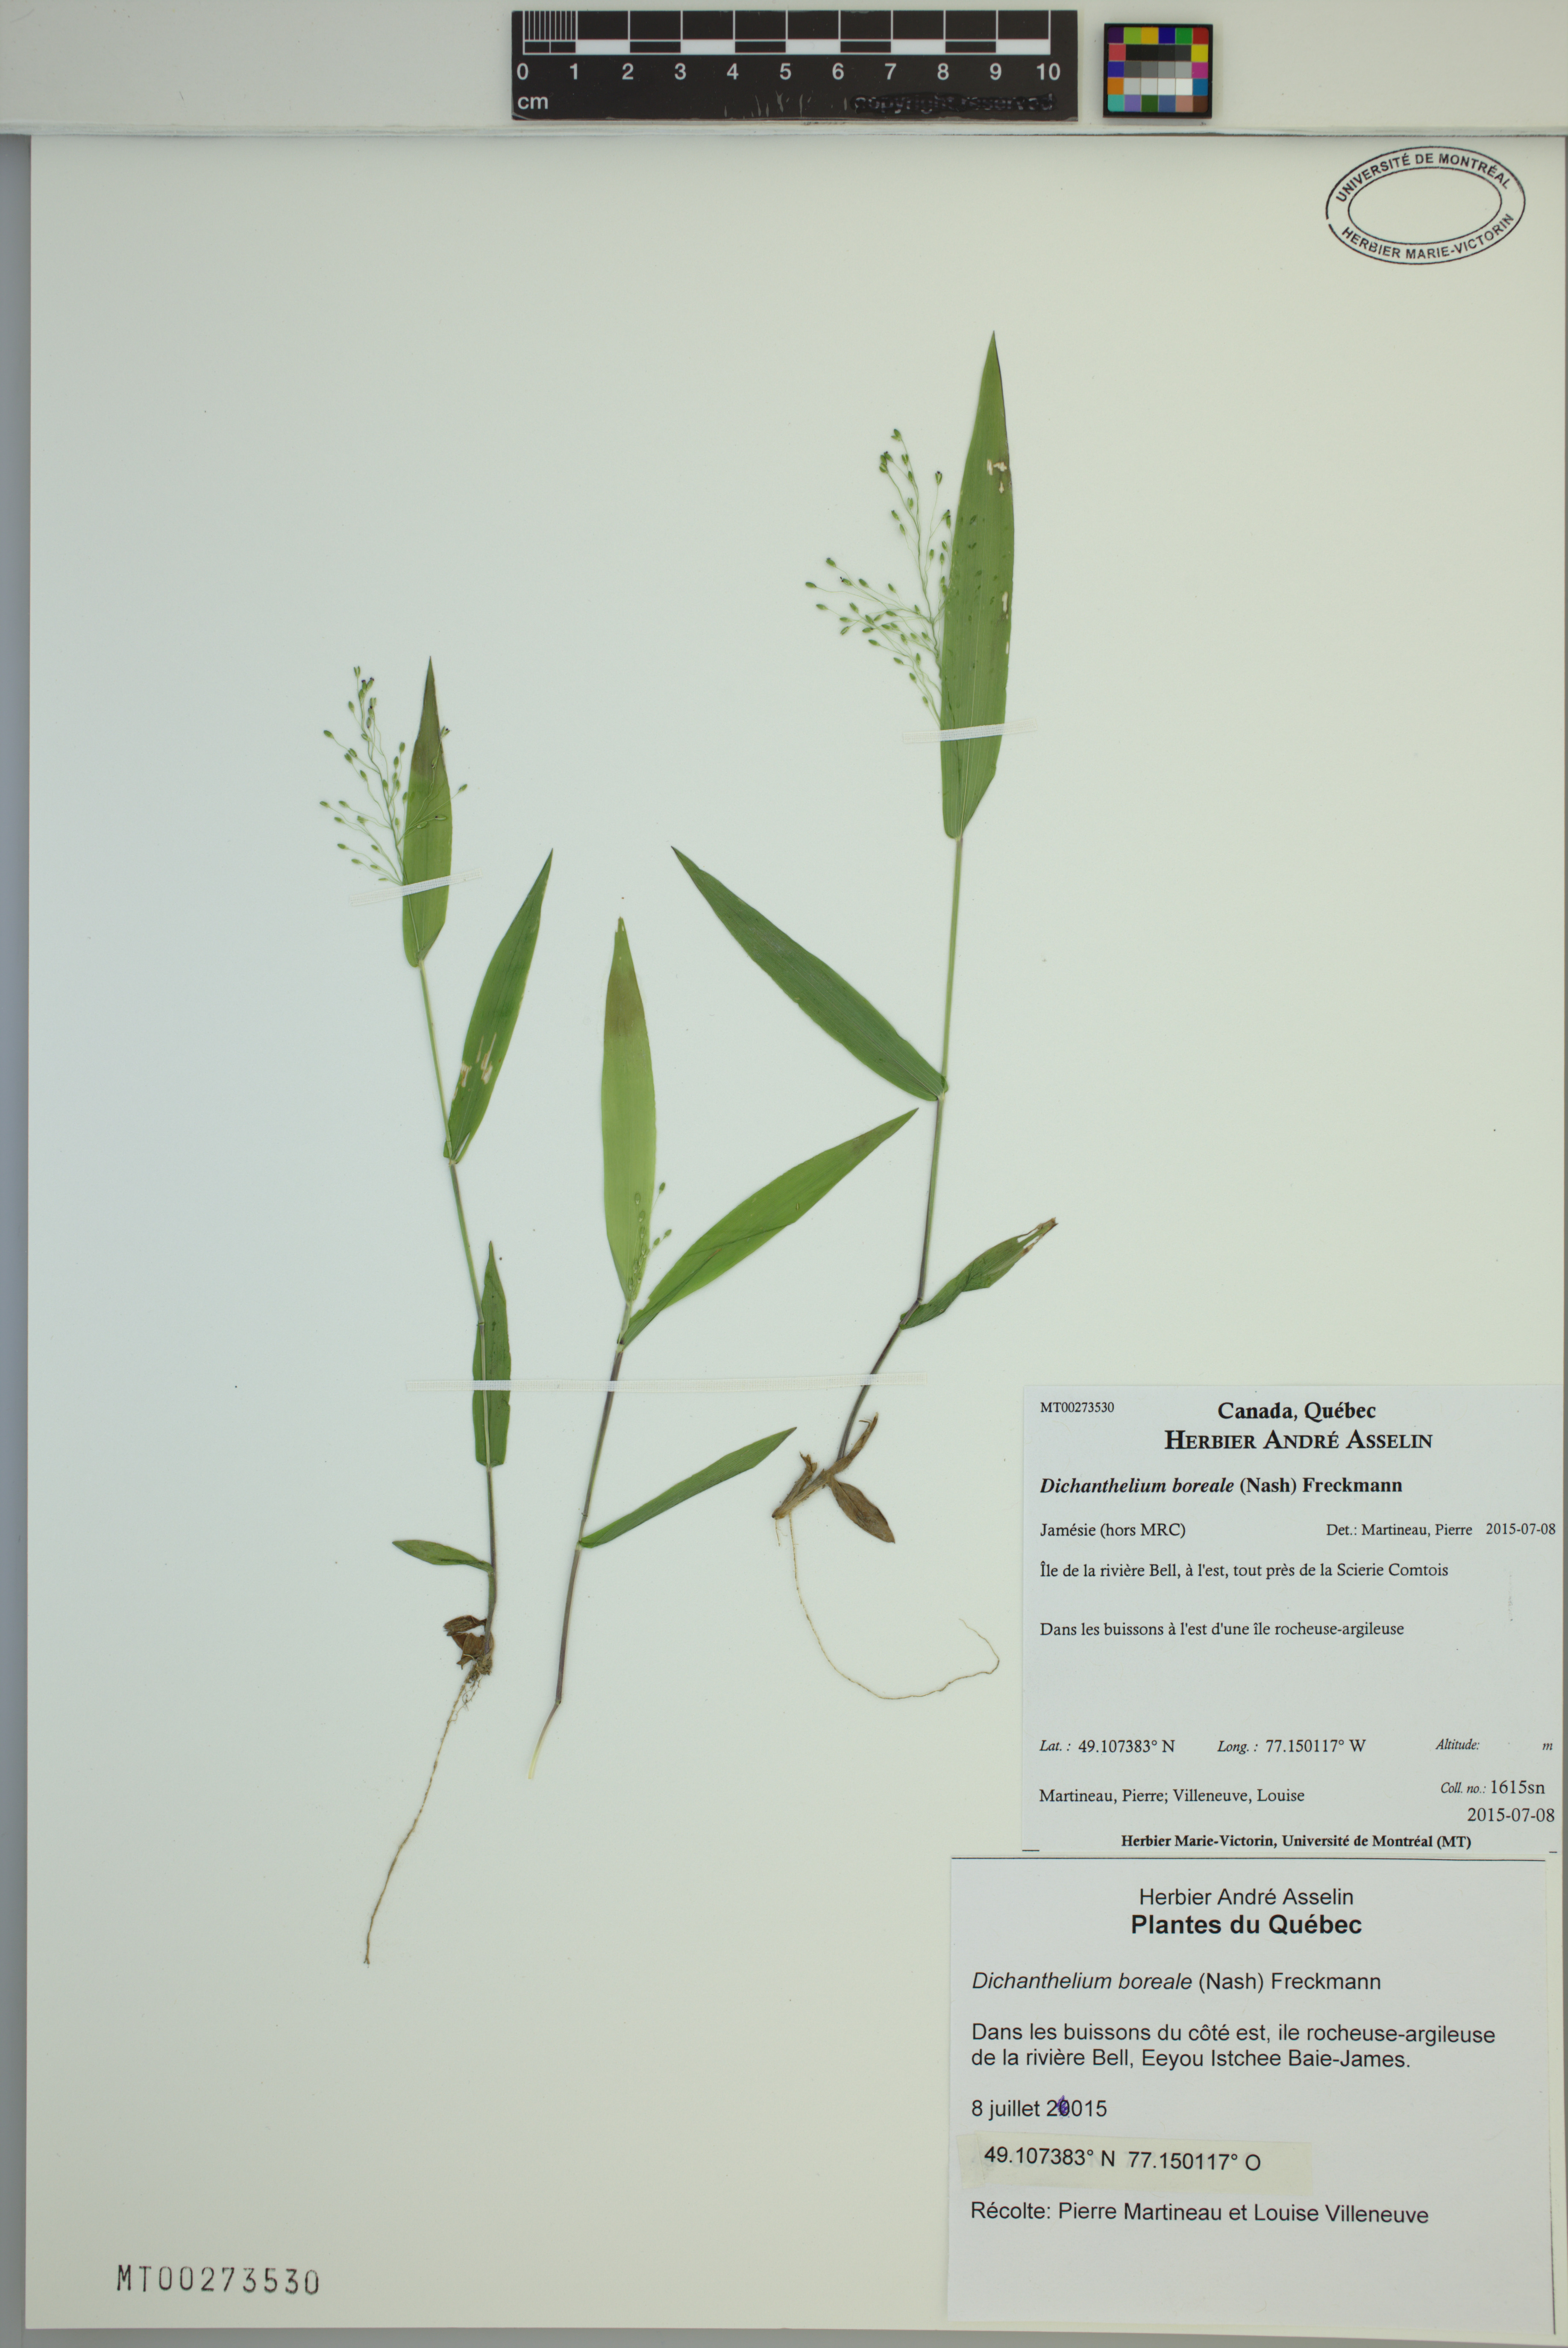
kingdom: Plantae
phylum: Tracheophyta
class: Liliopsida
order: Poales
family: Poaceae
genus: Dichanthelium
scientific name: Dichanthelium boreale
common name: Northern panicgrass
